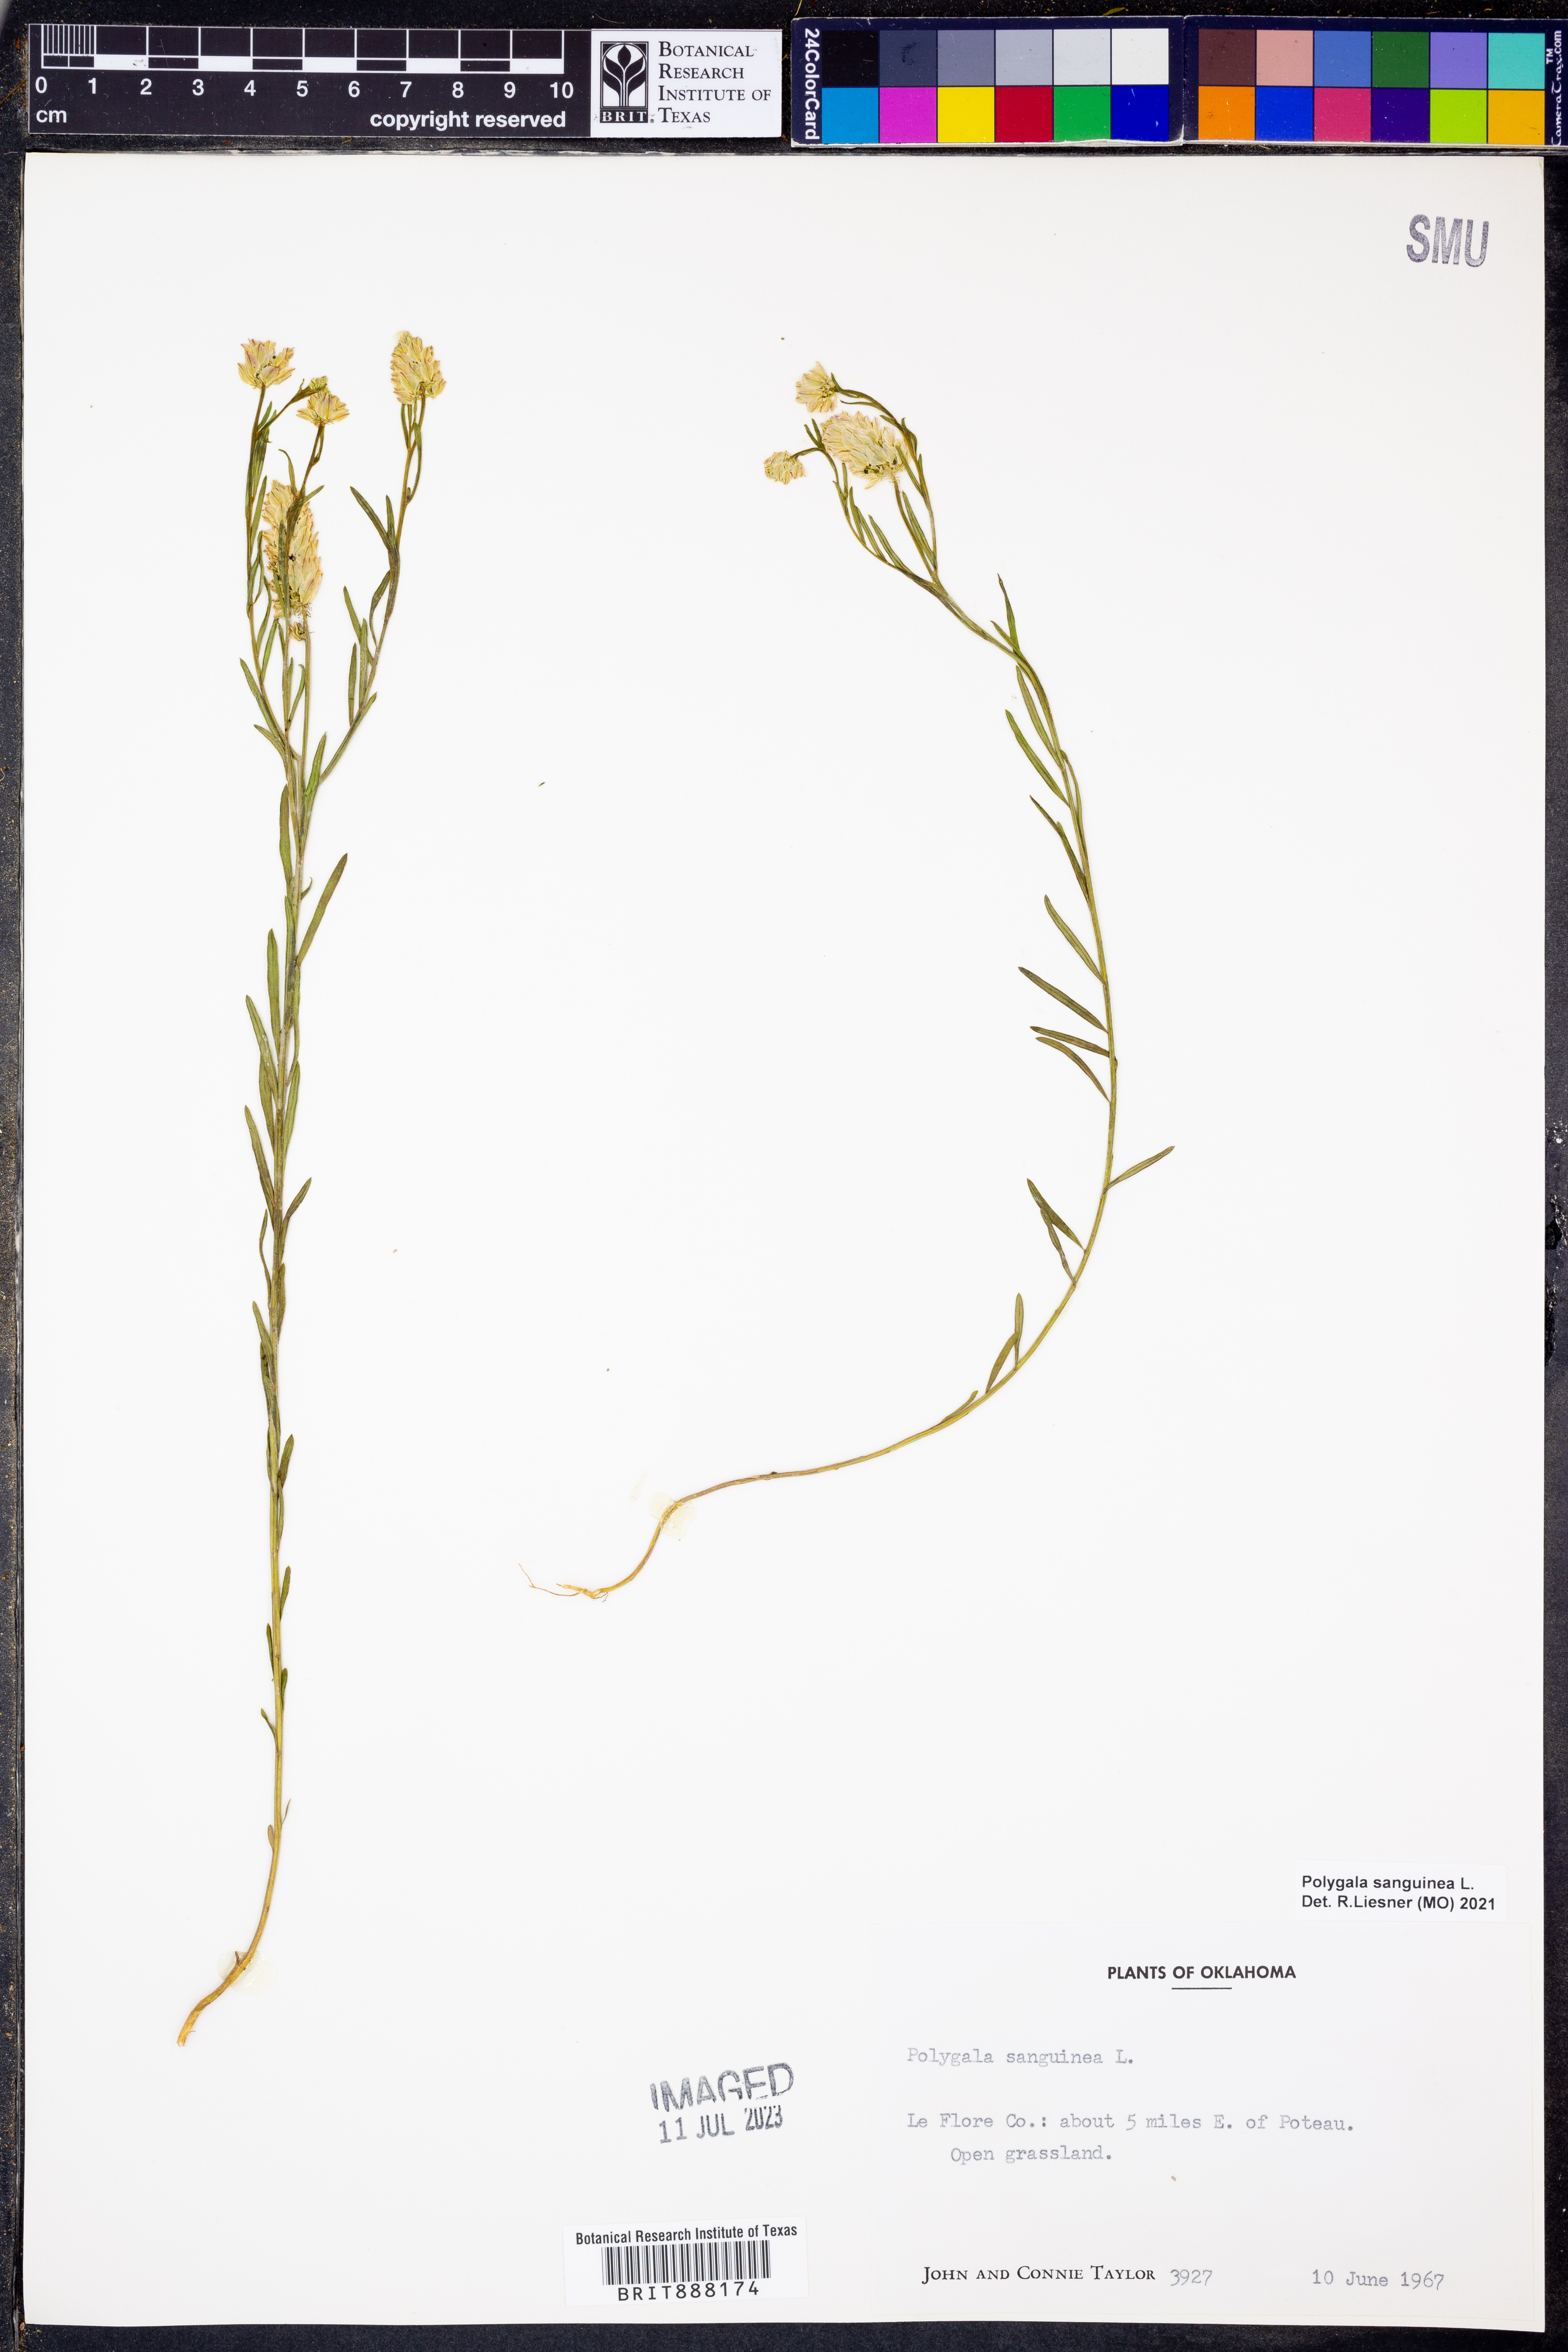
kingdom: Plantae
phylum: Tracheophyta
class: Magnoliopsida
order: Fabales
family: Polygalaceae
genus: Polygala
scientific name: Polygala sanguinea
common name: Blood milkwort
